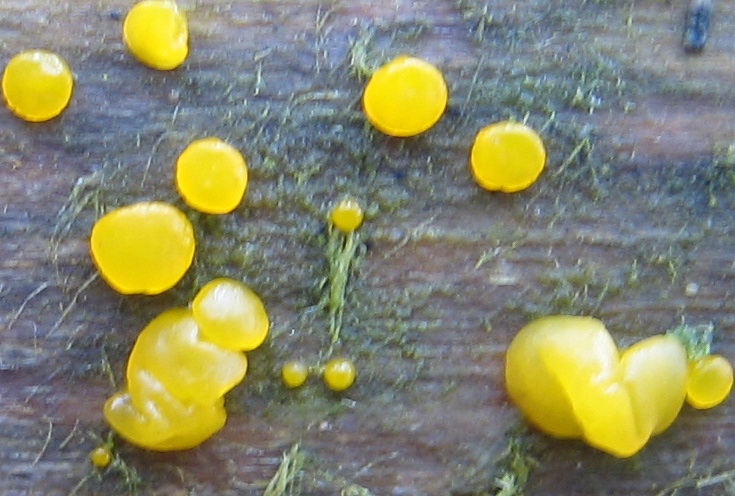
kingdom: Fungi
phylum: Basidiomycota
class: Dacrymycetes
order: Dacrymycetales
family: Dacrymycetaceae
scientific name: Dacrymycetaceae
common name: tåresvampfamilien
